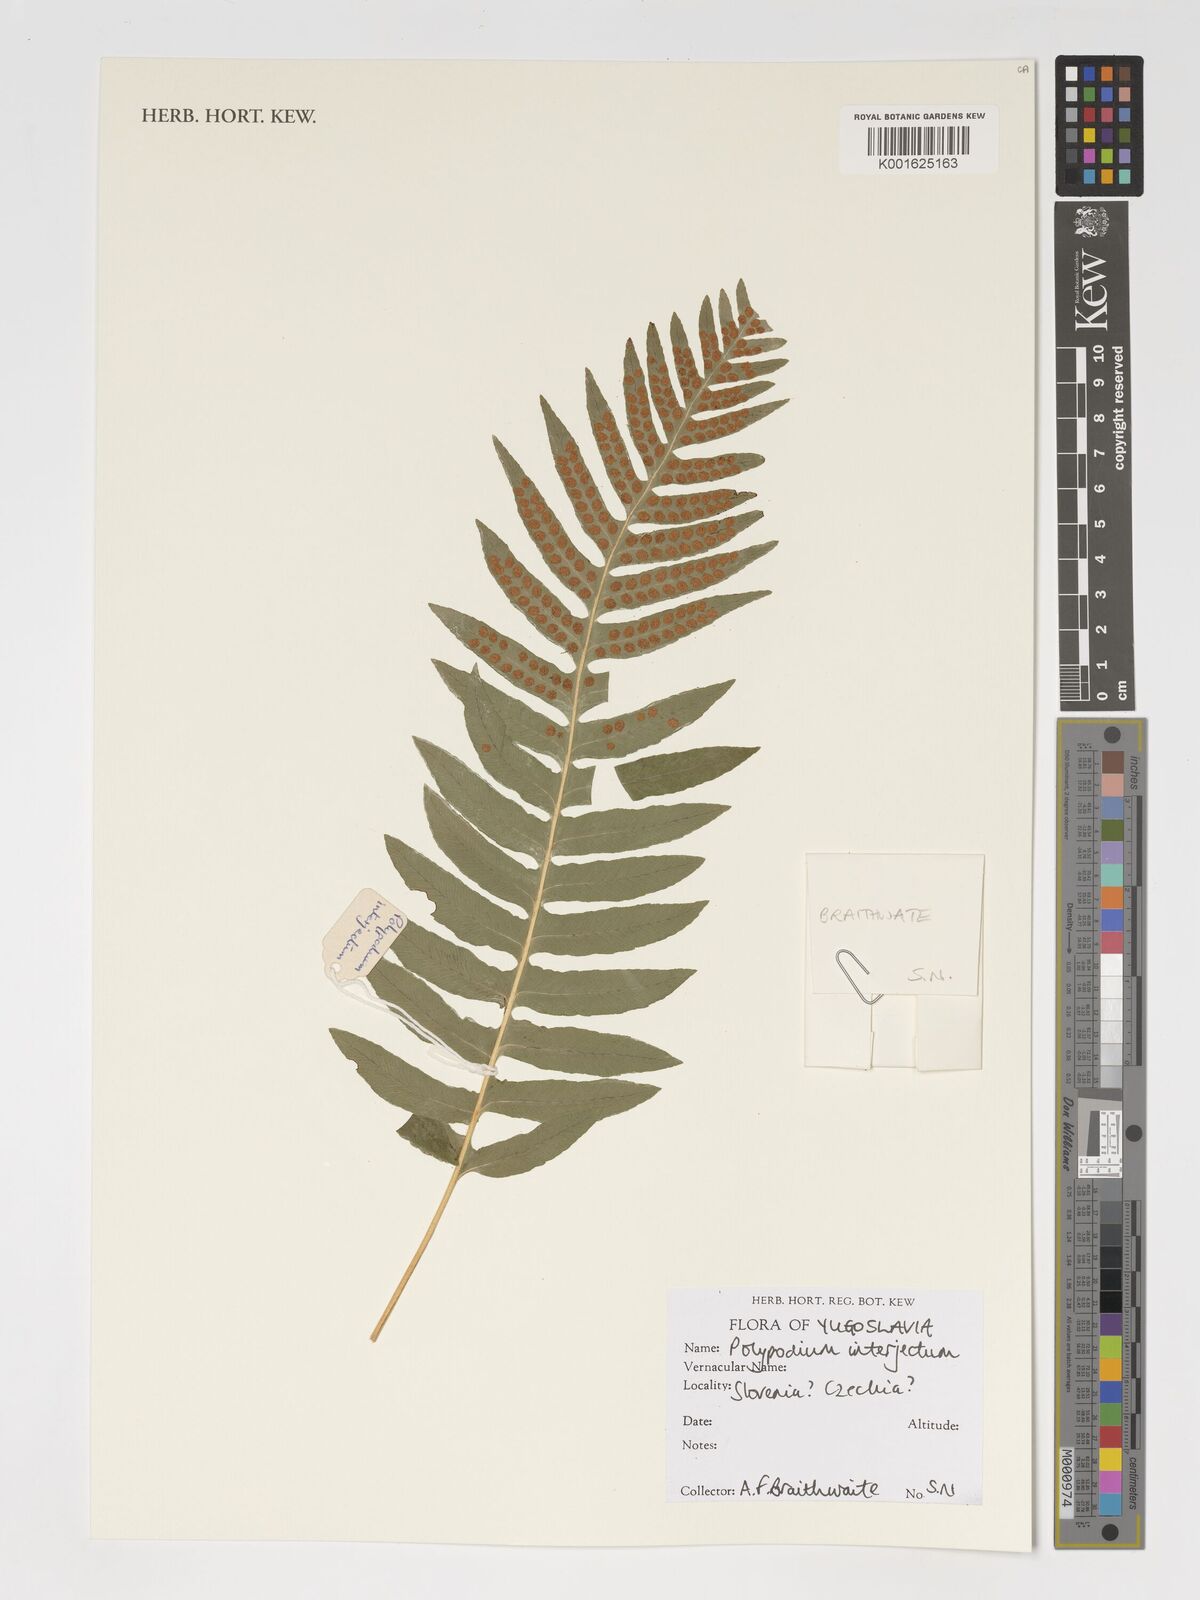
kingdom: Plantae
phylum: Tracheophyta
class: Polypodiopsida
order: Polypodiales
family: Polypodiaceae
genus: Polypodium
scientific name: Polypodium interjectum
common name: Intermediate polypody
